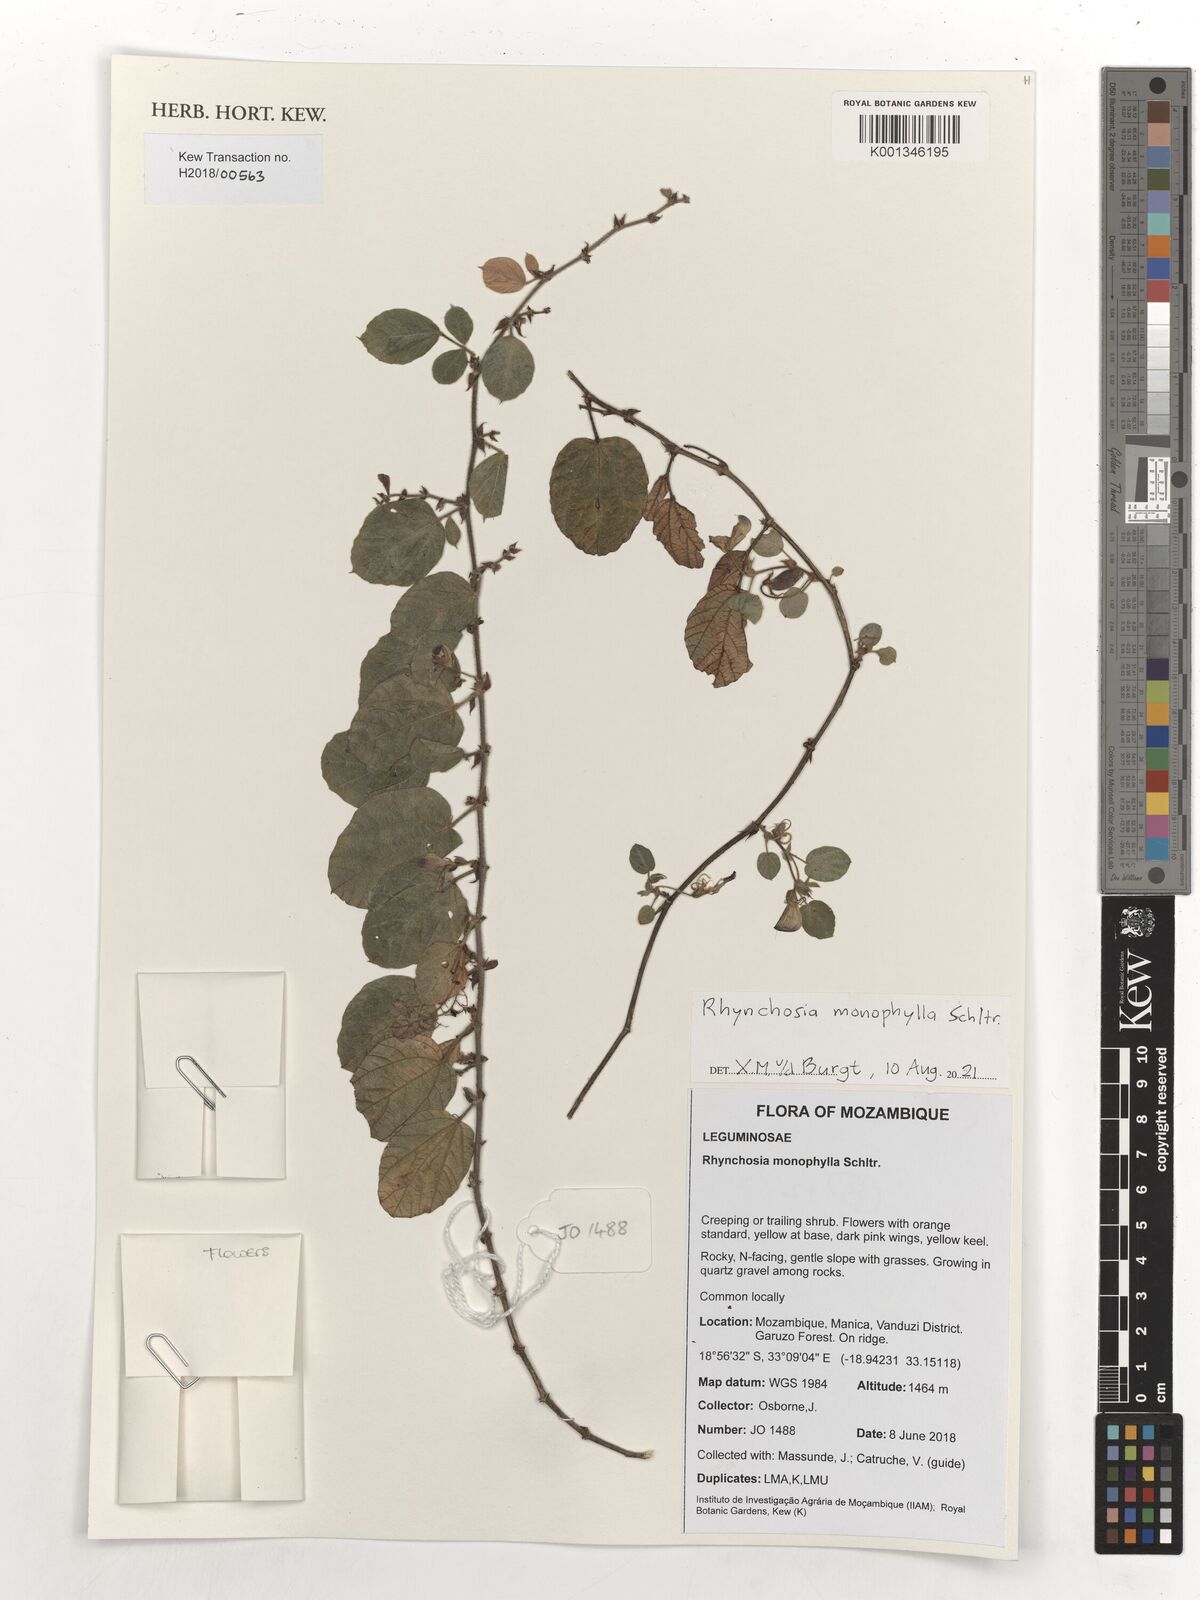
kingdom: Plantae
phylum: Tracheophyta
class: Magnoliopsida
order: Fabales
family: Fabaceae
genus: Rhynchosia
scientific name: Rhynchosia monophylla
